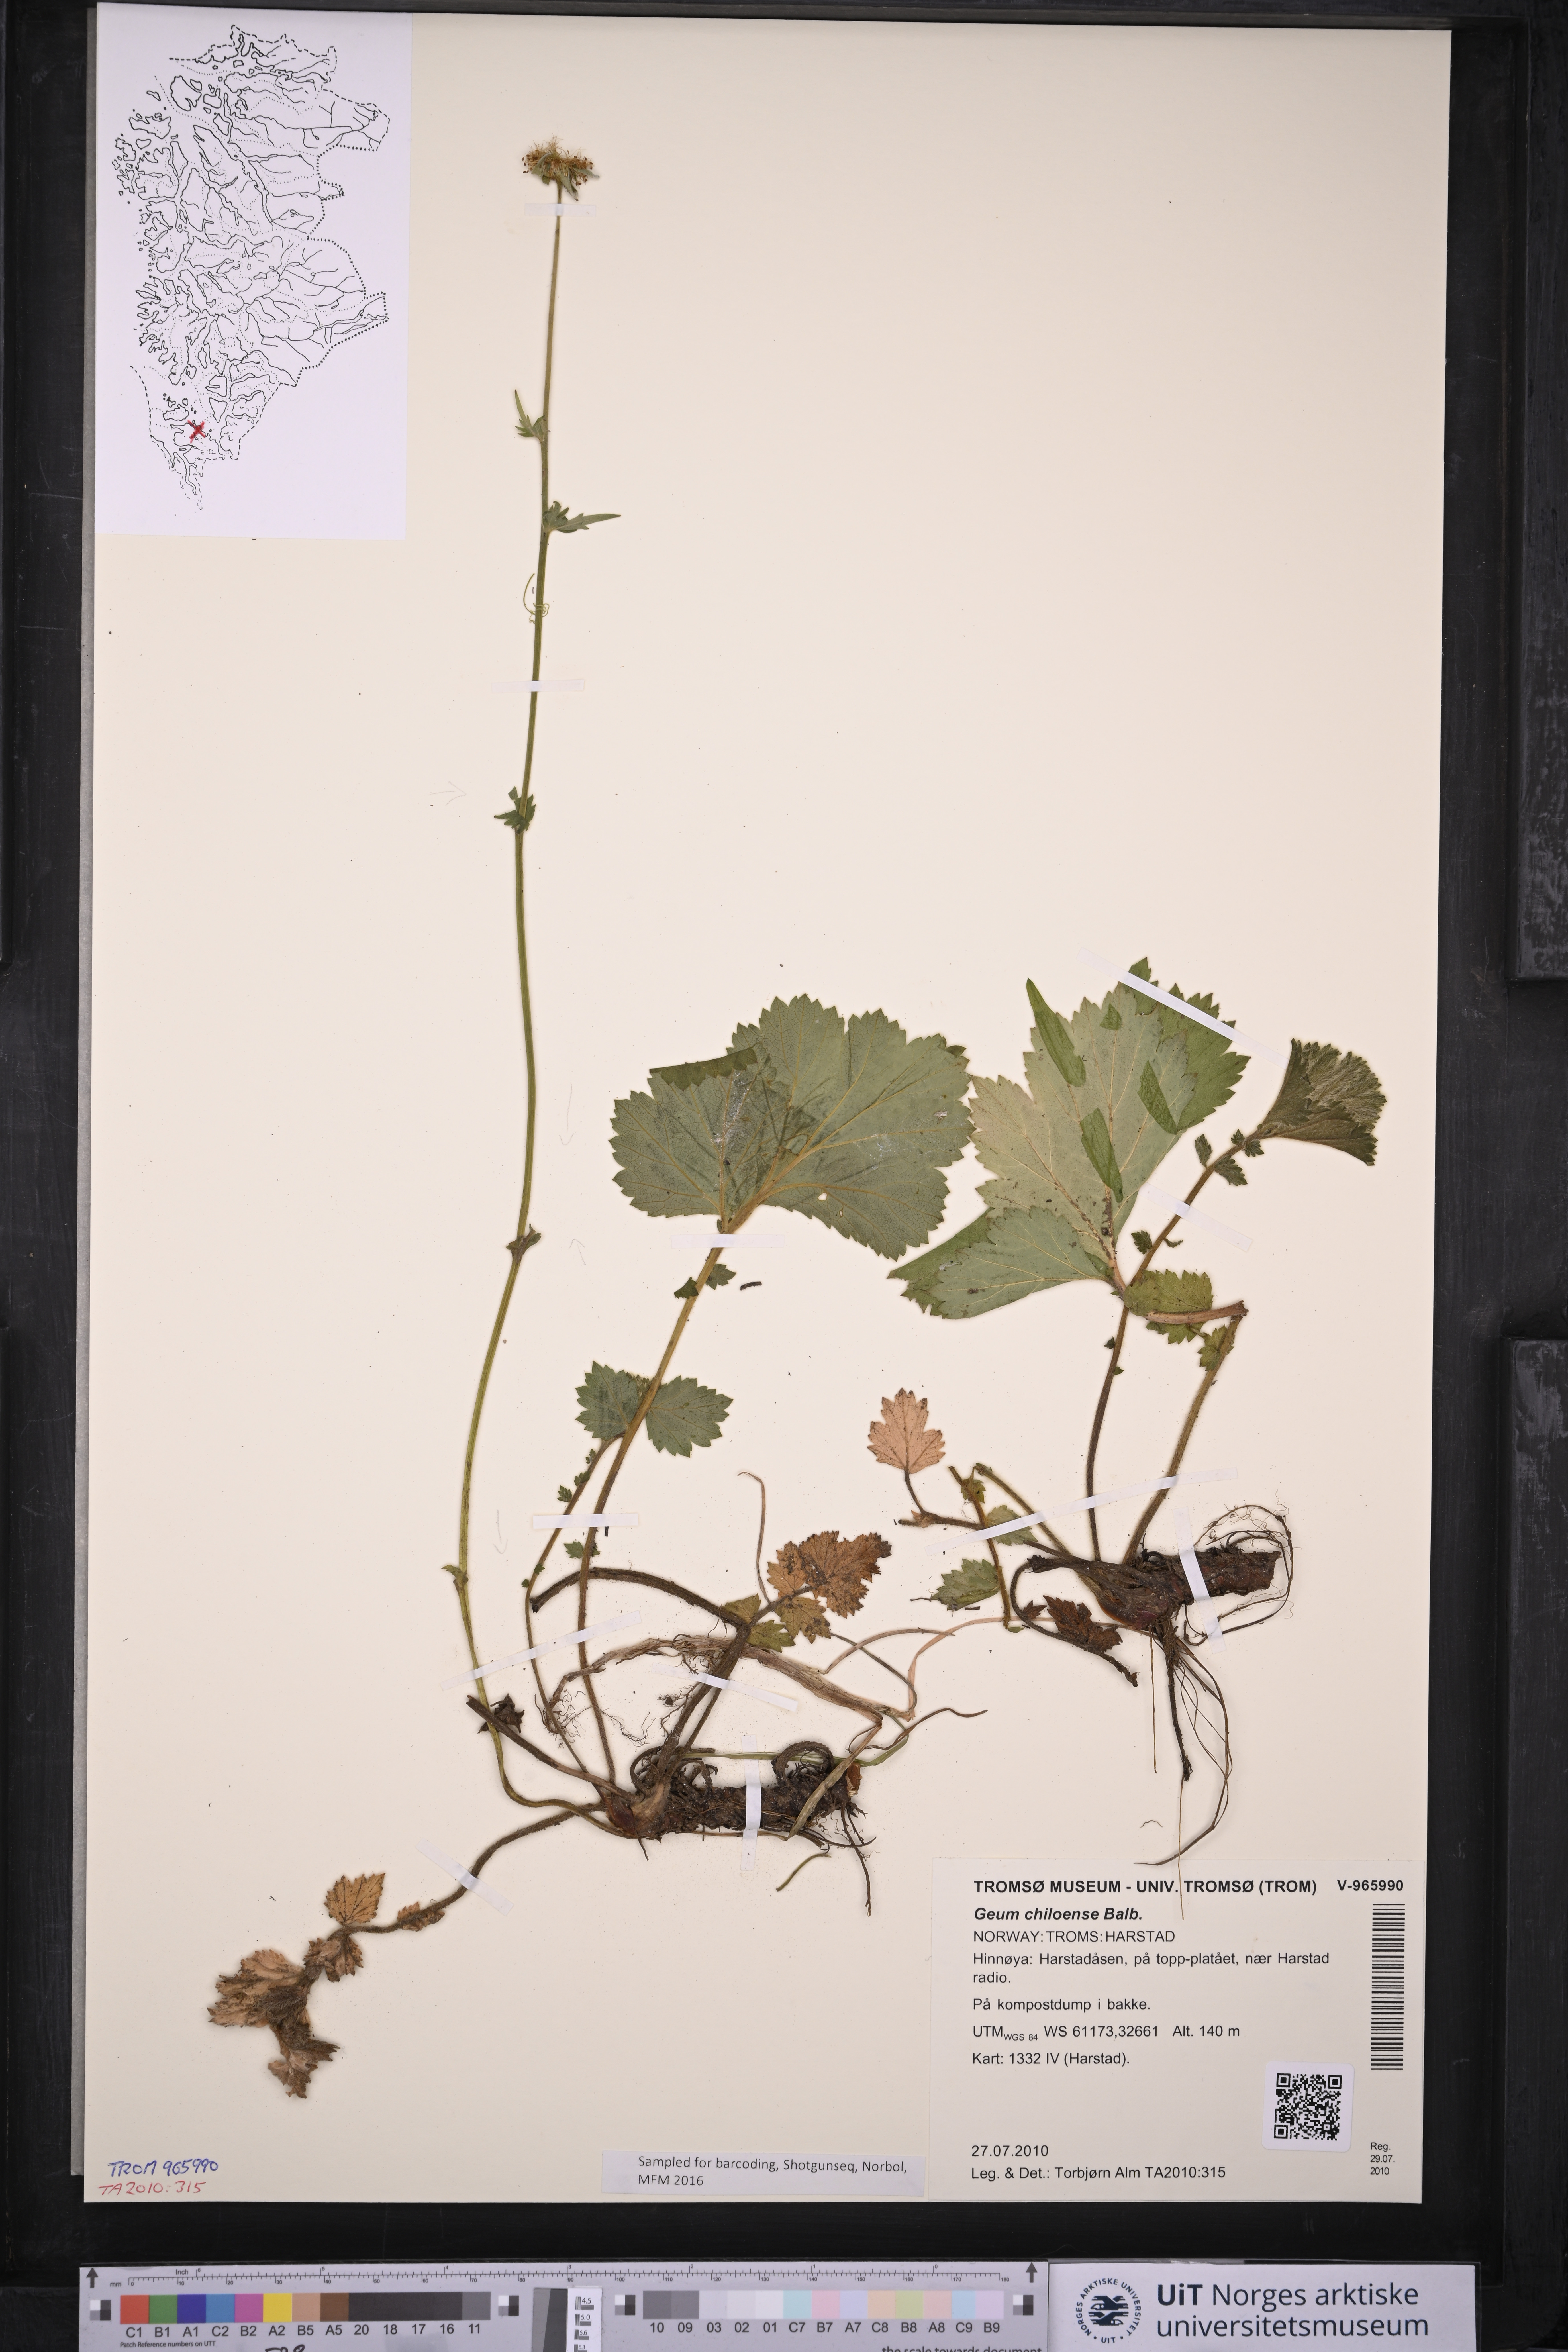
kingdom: Plantae
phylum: Tracheophyta
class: Magnoliopsida
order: Rosales
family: Rosaceae
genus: Geum
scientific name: Geum quellyon
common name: Scarlet avens
